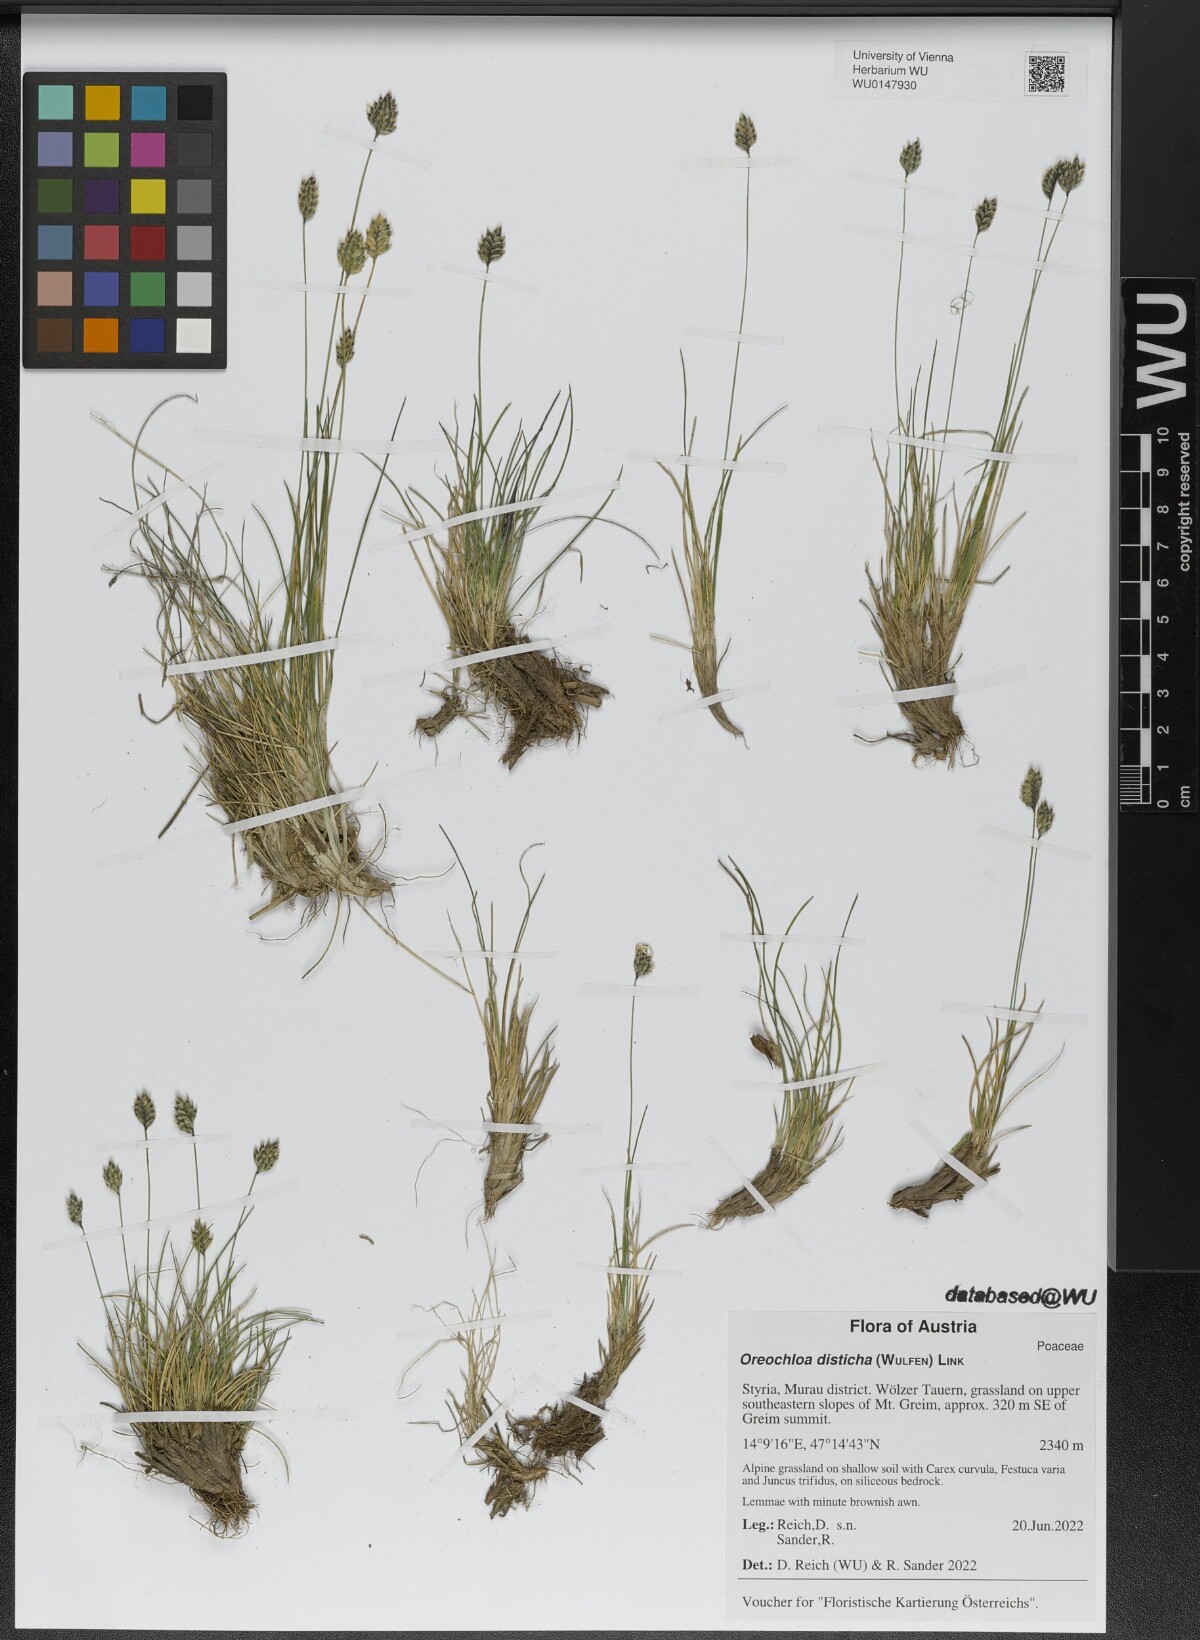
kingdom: Plantae
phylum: Tracheophyta
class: Liliopsida
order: Poales
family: Poaceae
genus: Oreochloa
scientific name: Oreochloa disticha
